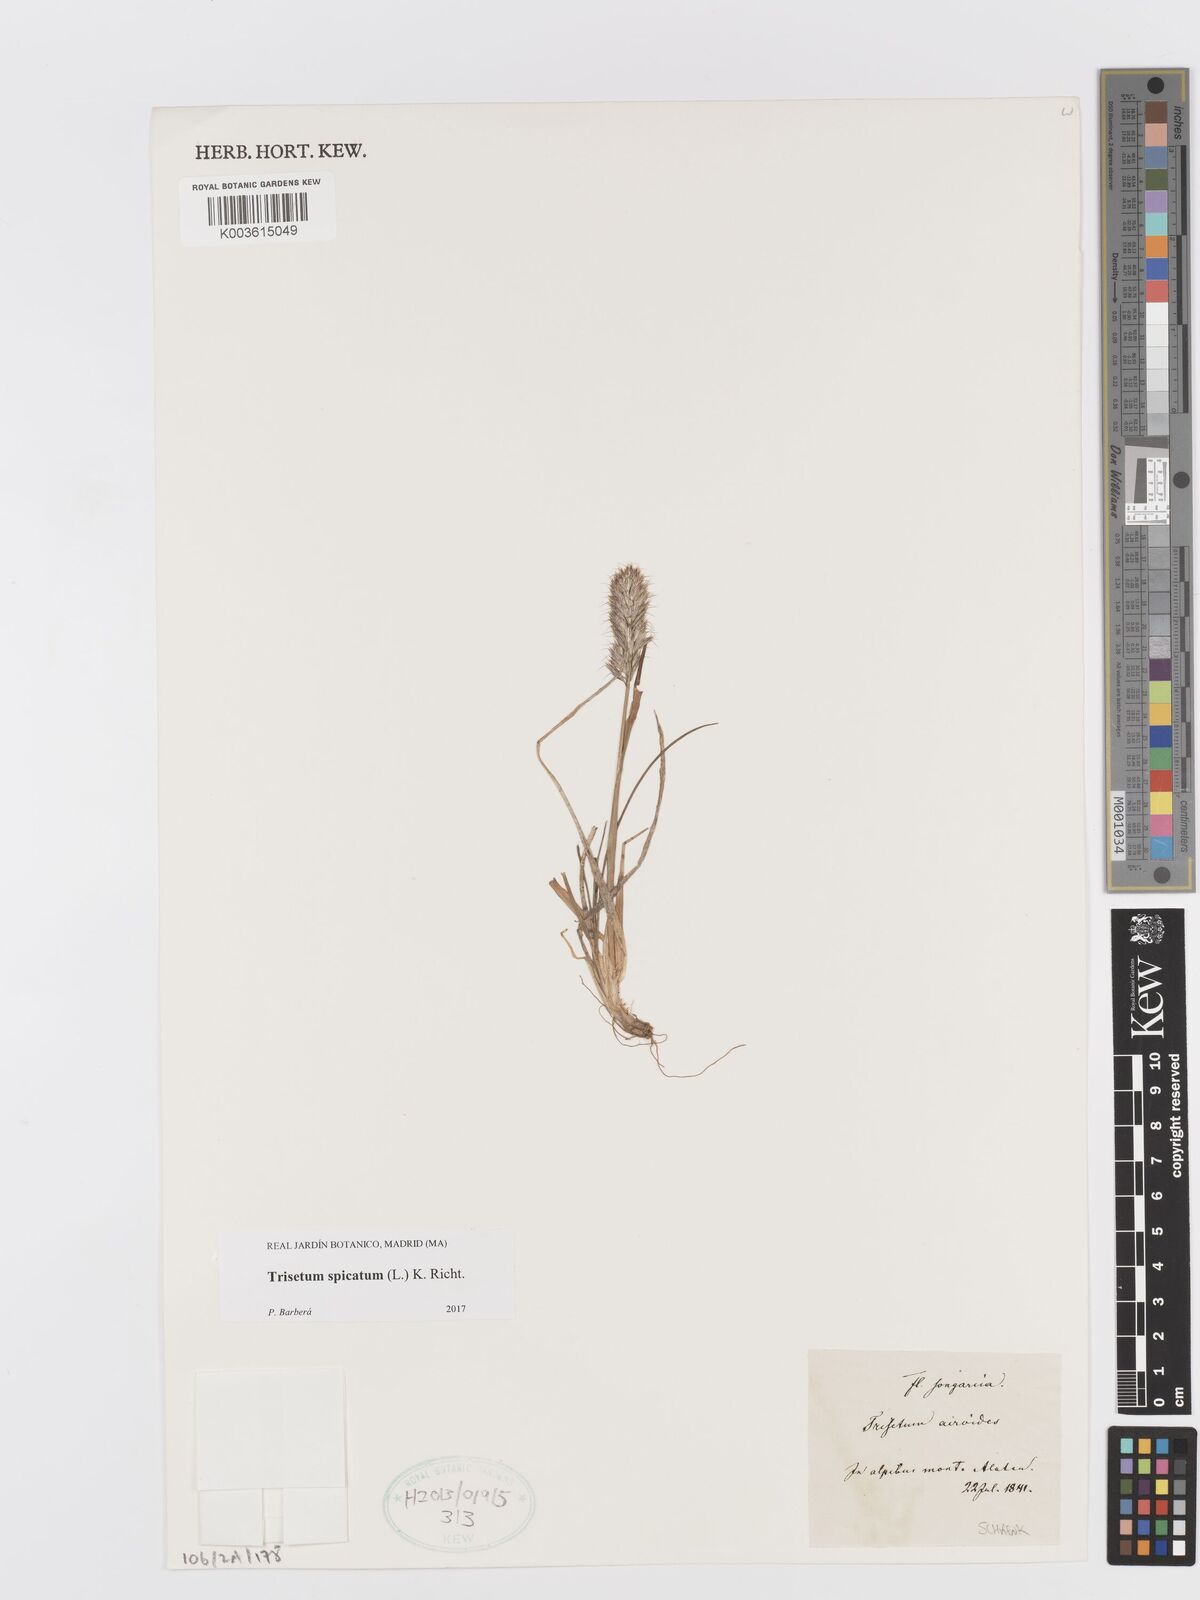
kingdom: Plantae
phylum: Tracheophyta
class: Liliopsida
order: Poales
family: Poaceae
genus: Koeleria
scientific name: Koeleria spicata
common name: Mountain trisetum
